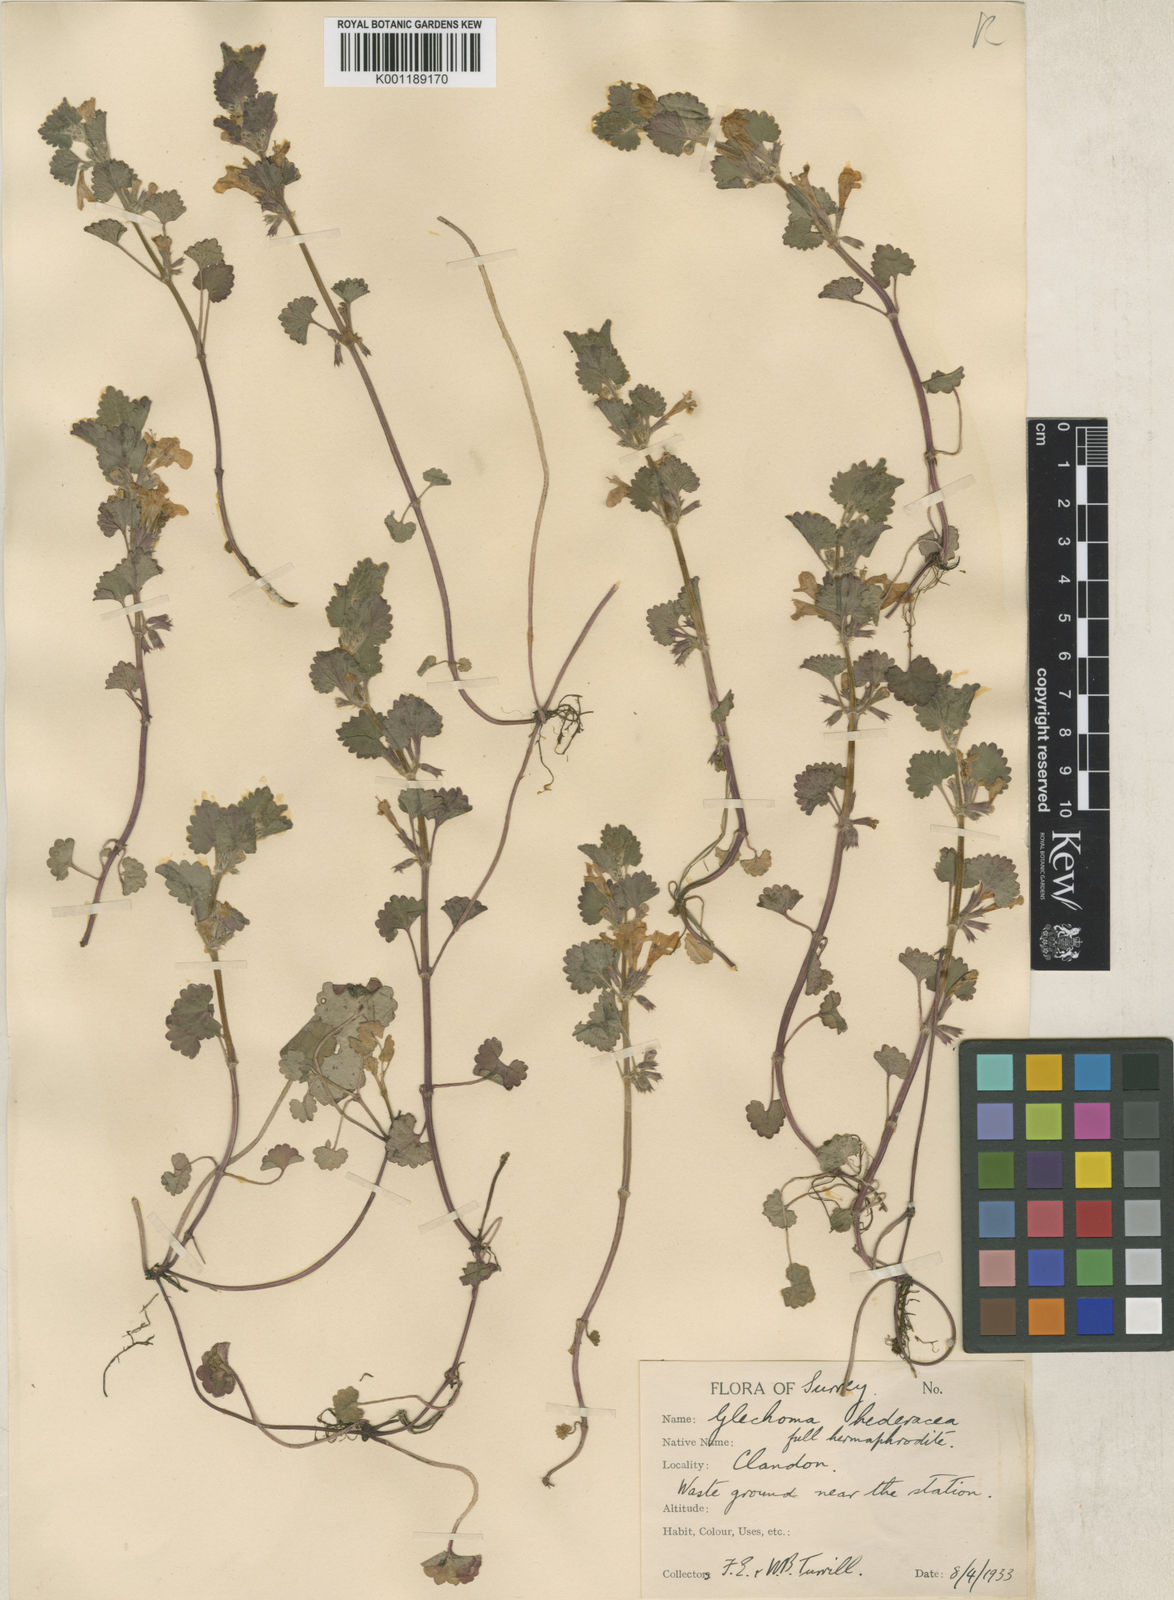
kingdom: Plantae
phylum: Tracheophyta
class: Magnoliopsida
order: Malvales
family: Malvaceae
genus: Melochia
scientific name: Melochia melissifolia
